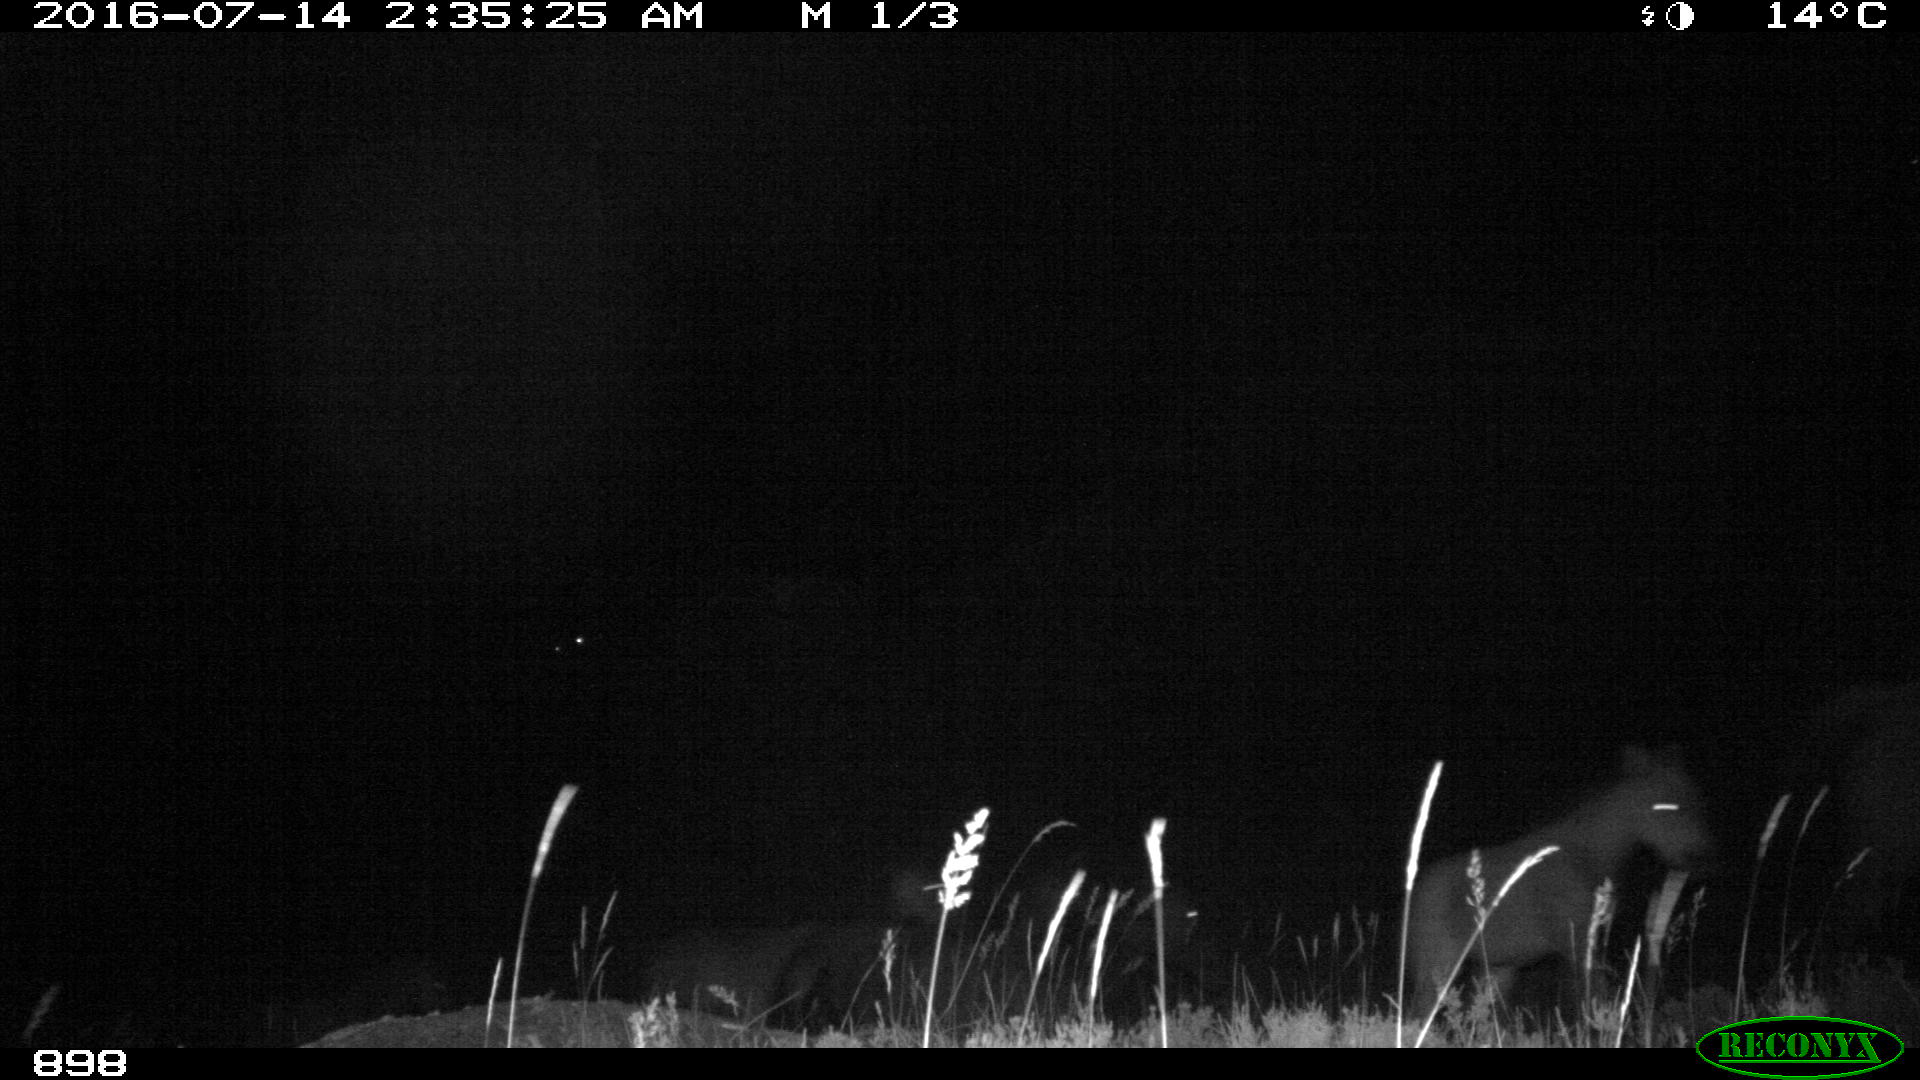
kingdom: Animalia
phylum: Chordata
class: Mammalia
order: Perissodactyla
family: Equidae
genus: Equus
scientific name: Equus caballus
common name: Horse
